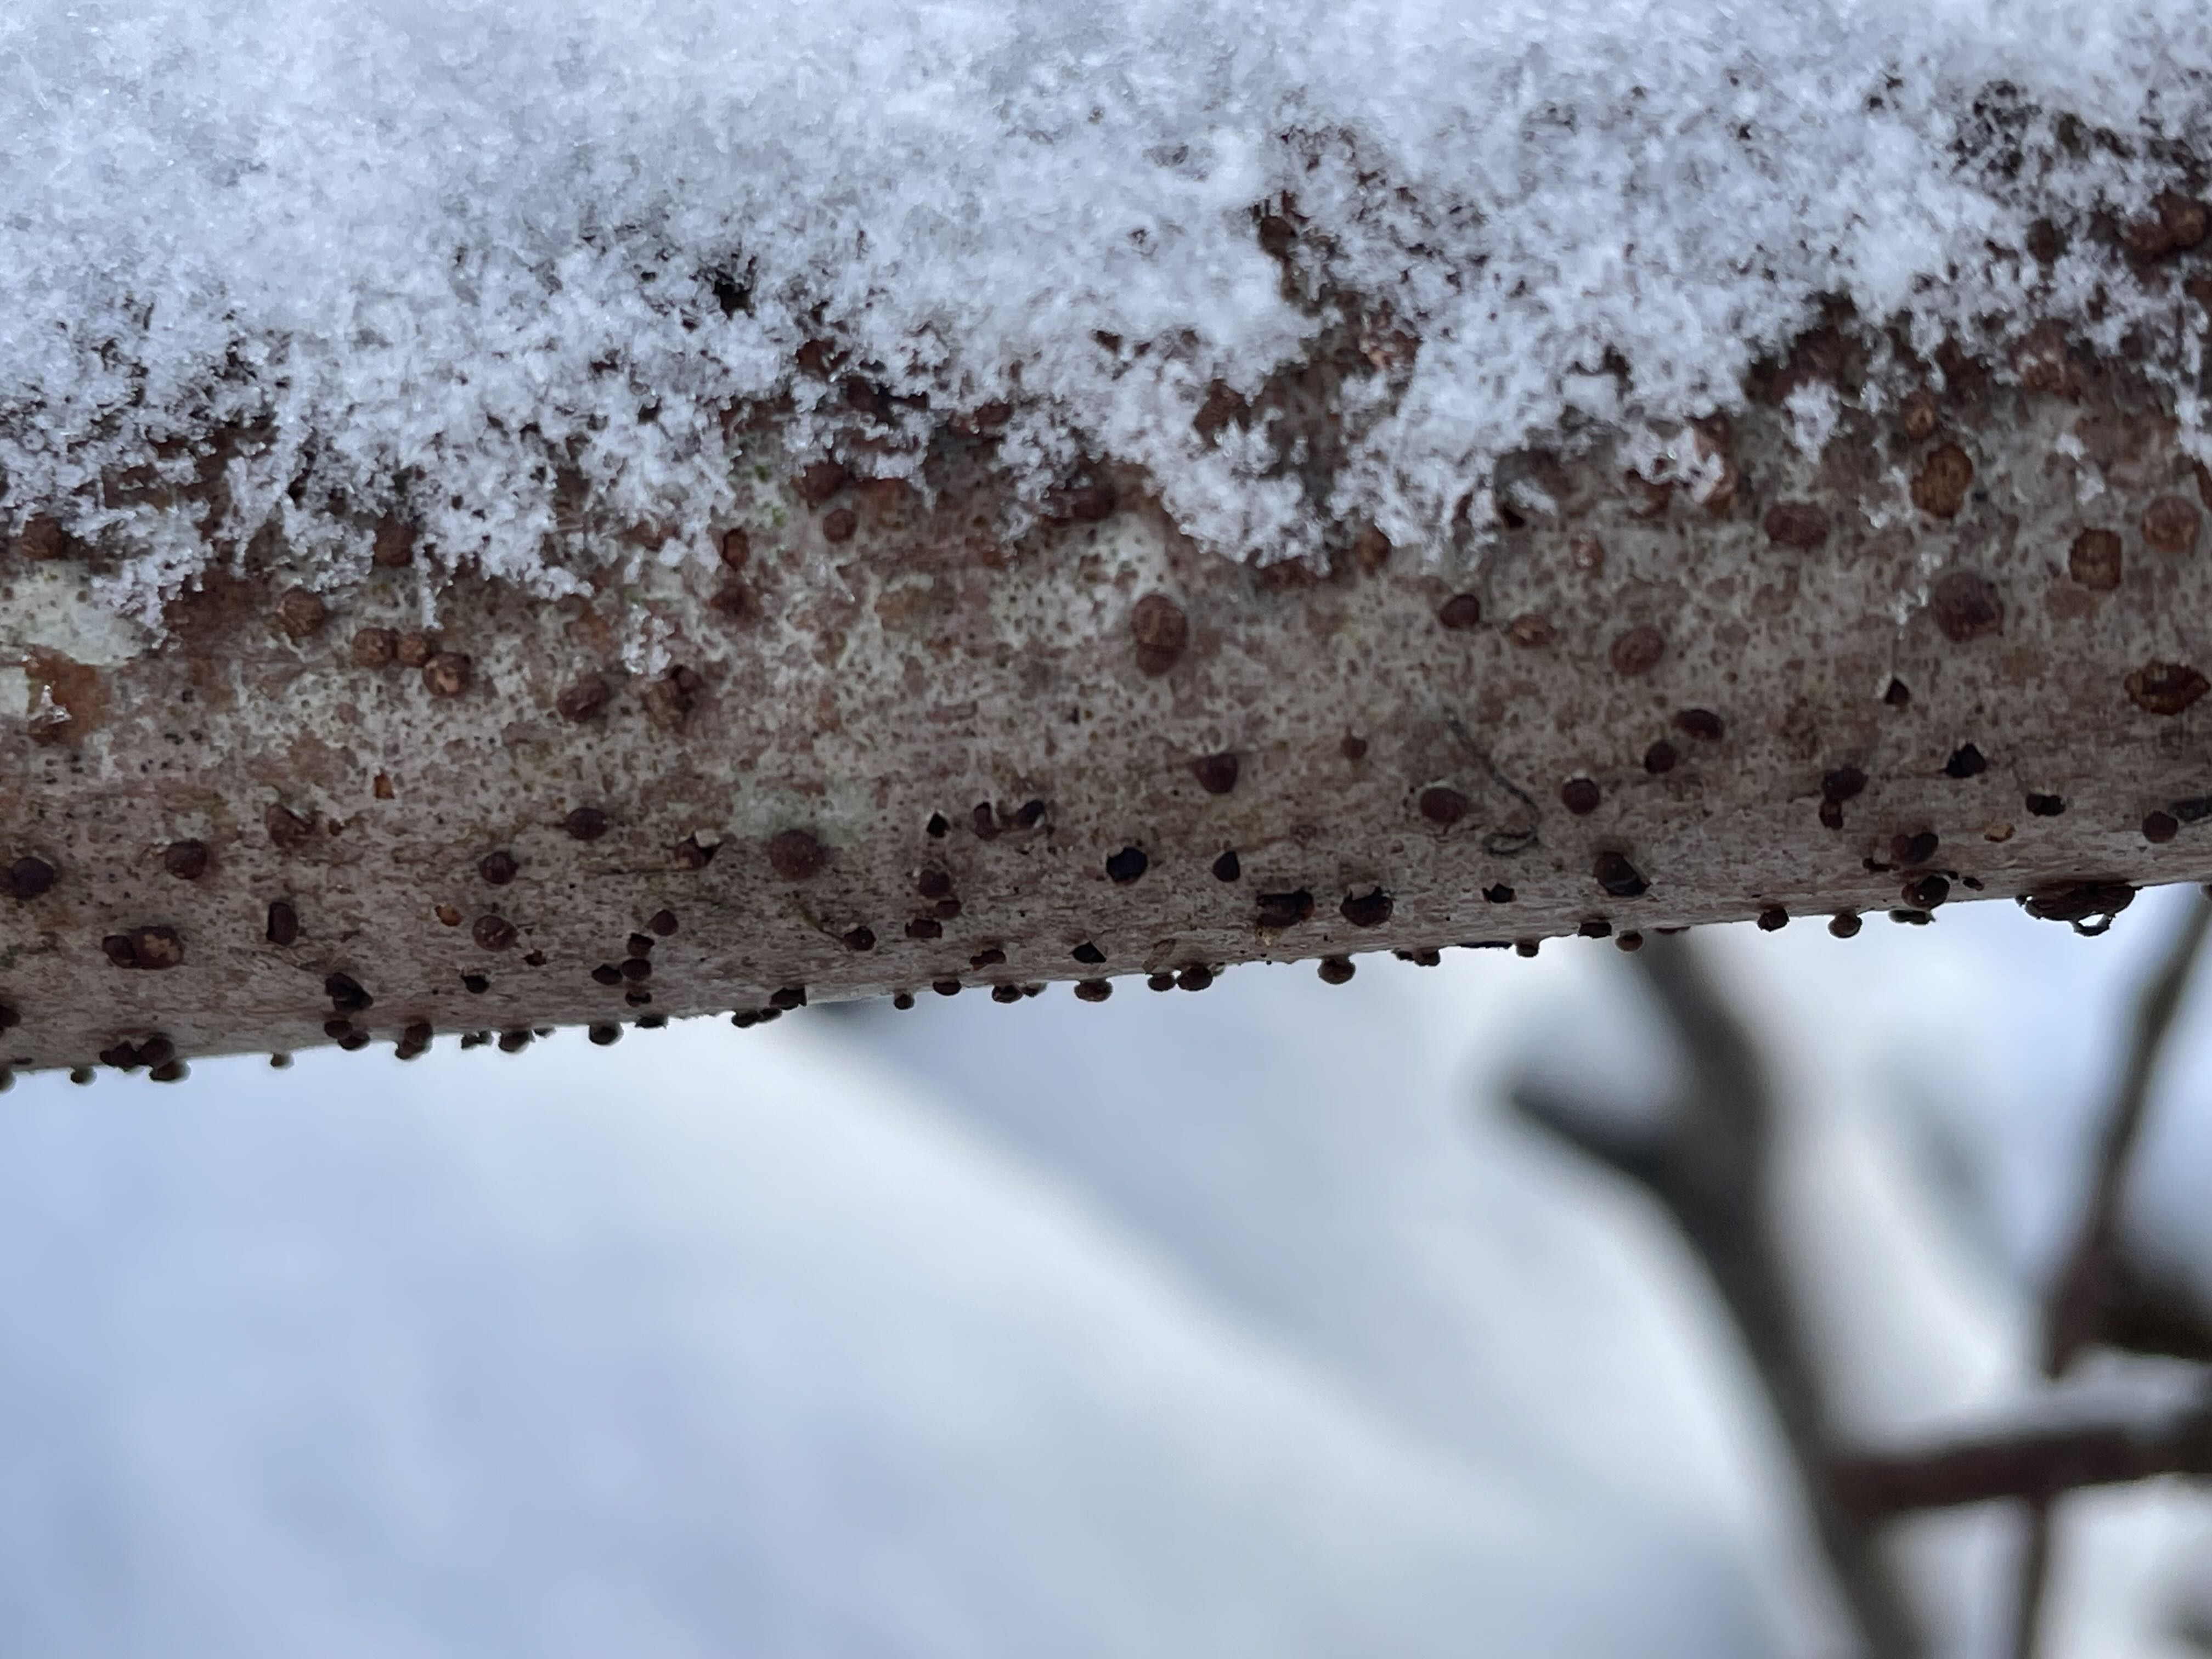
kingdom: Fungi
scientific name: Fungi
